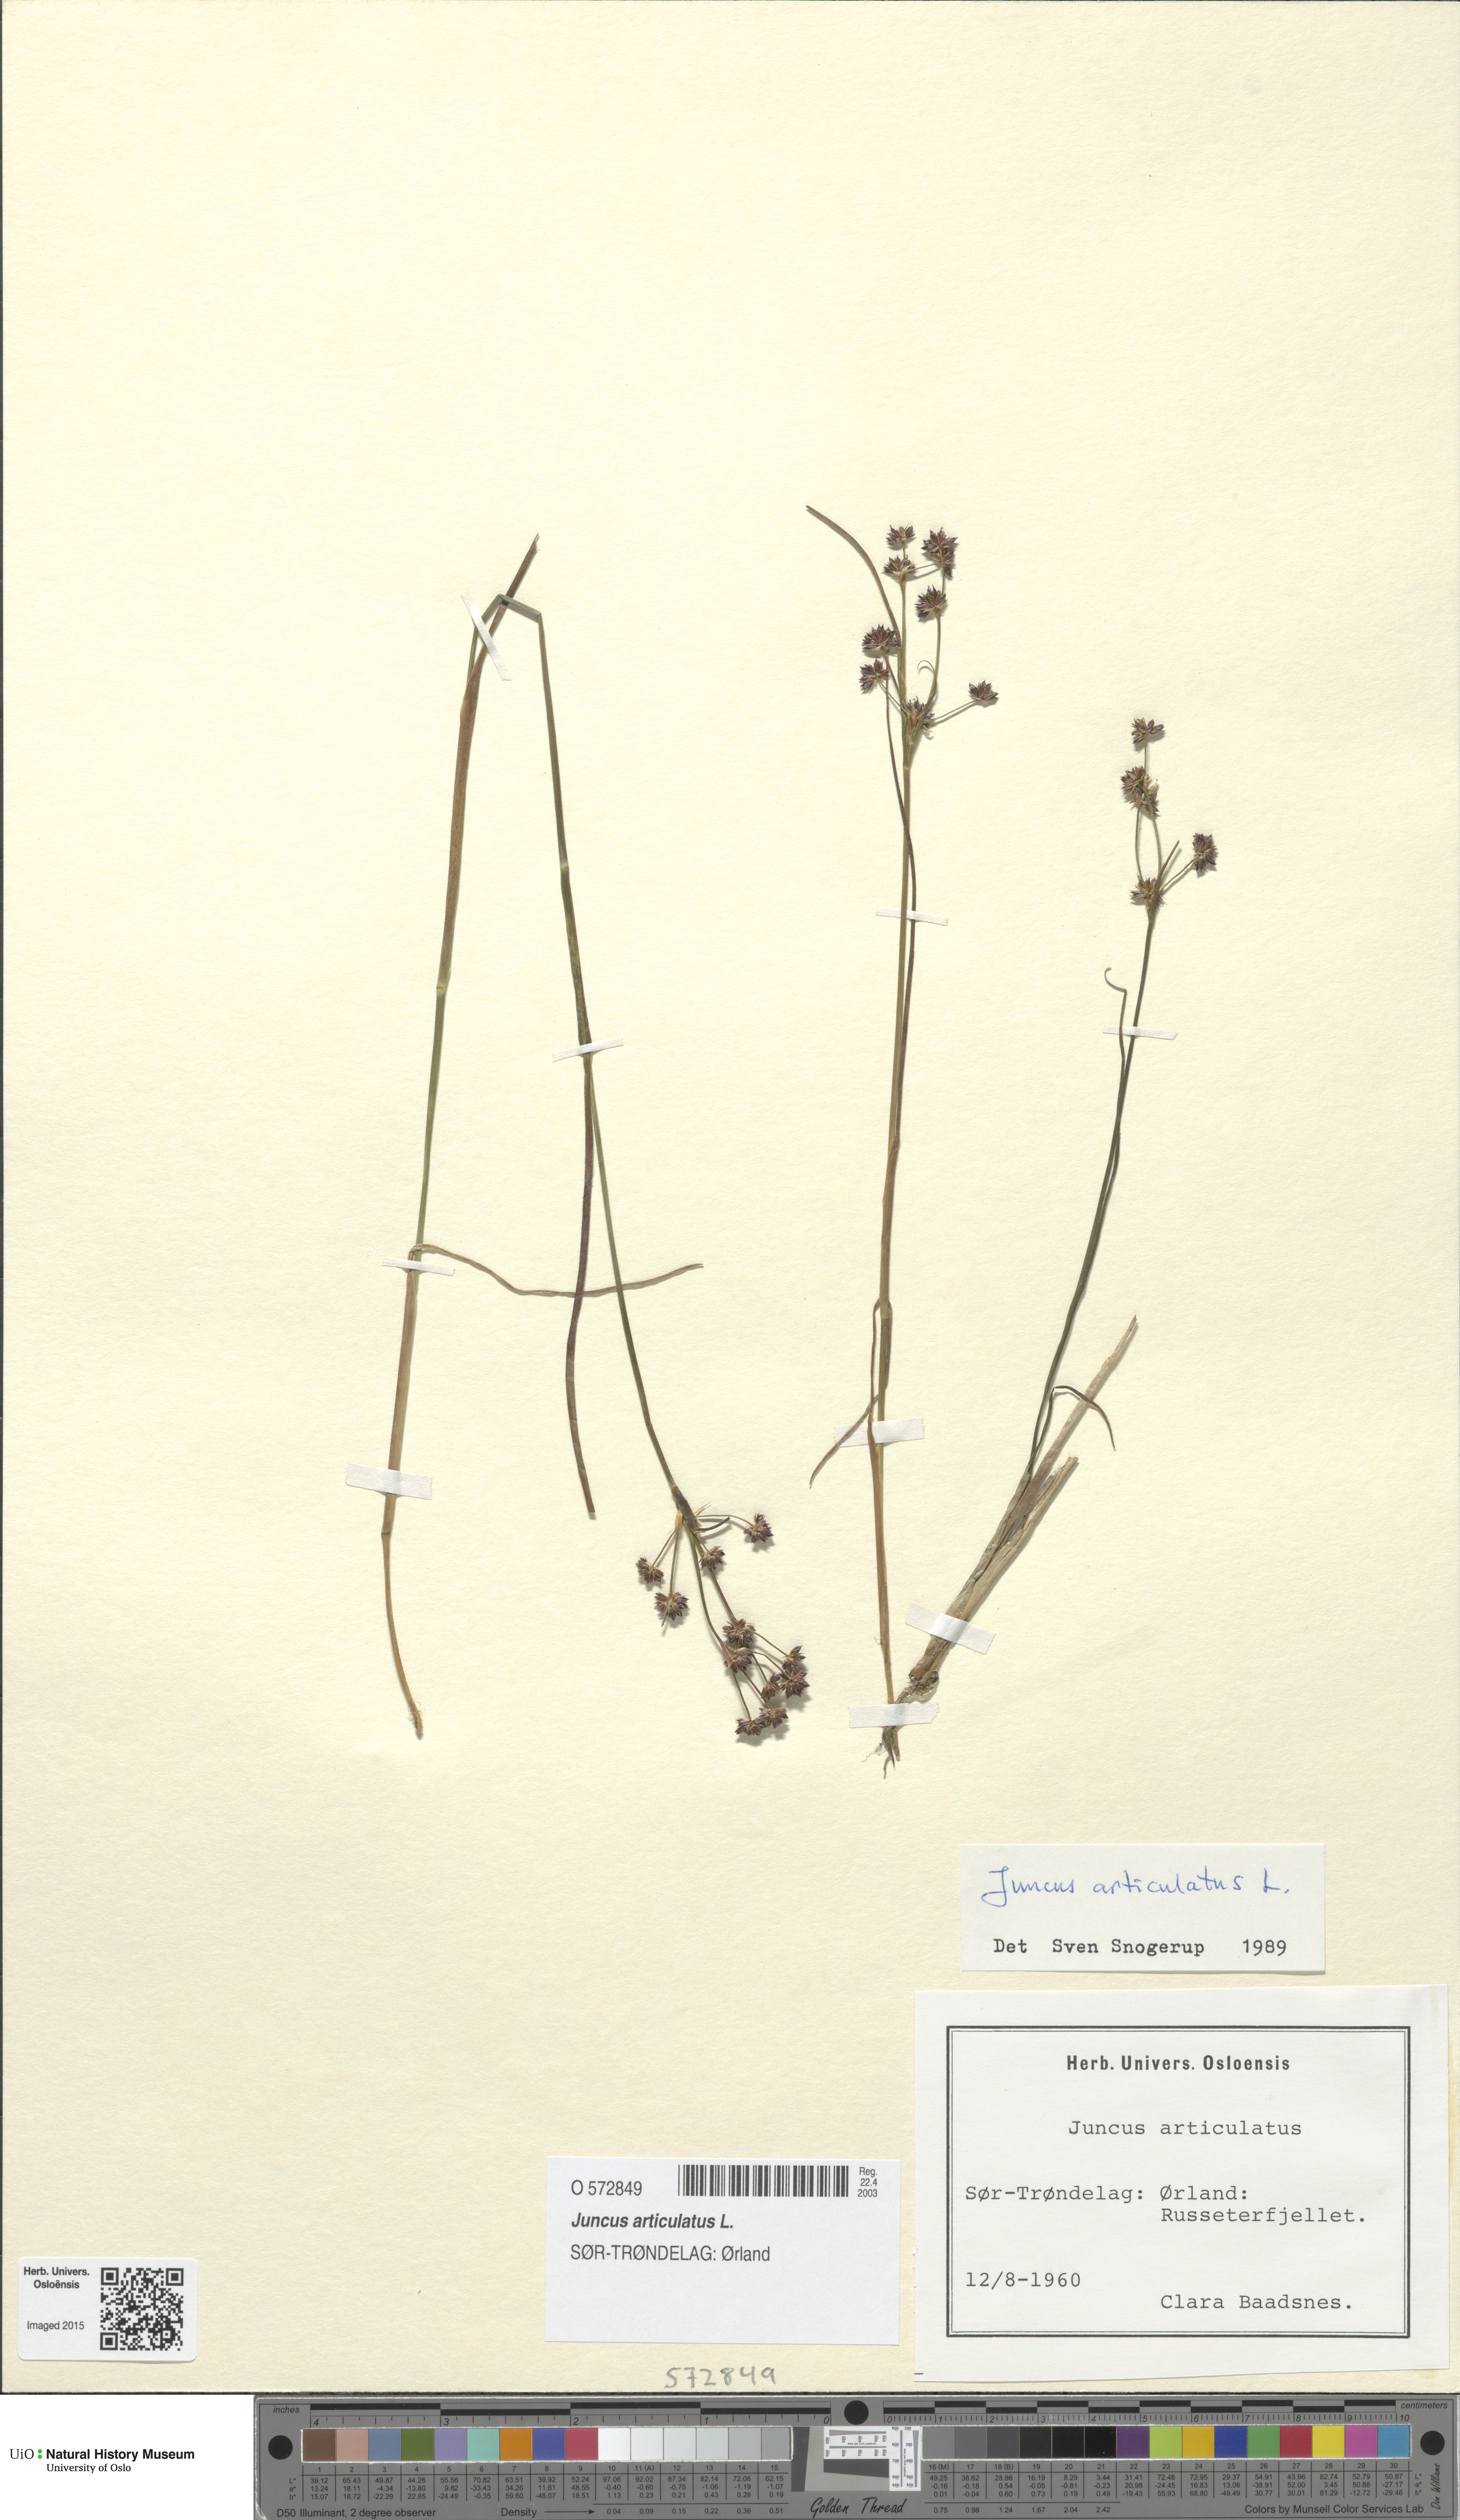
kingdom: Plantae
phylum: Tracheophyta
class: Liliopsida
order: Poales
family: Juncaceae
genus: Juncus
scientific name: Juncus articulatus
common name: Jointed rush
